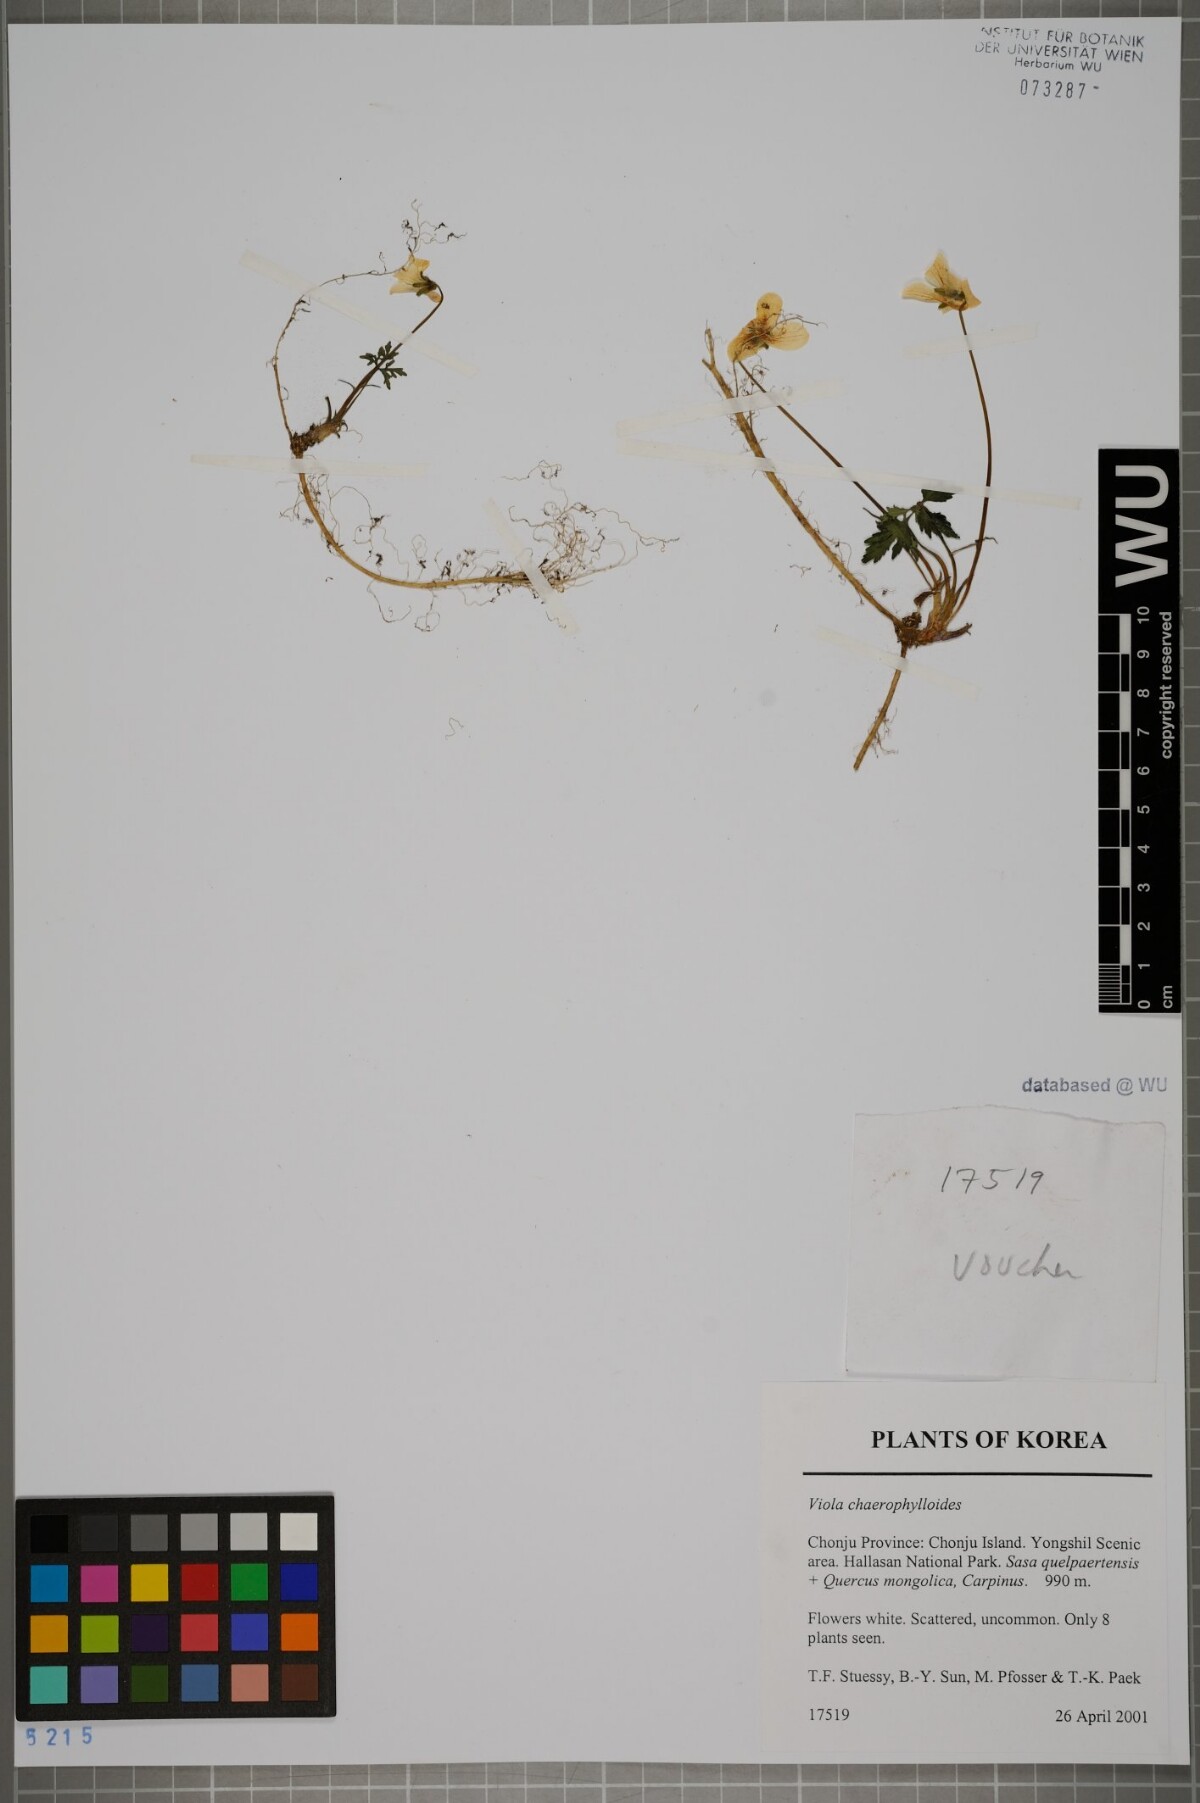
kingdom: Plantae
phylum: Tracheophyta
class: Magnoliopsida
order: Malpighiales
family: Violaceae
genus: Viola
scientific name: Viola albida
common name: Korean violet
